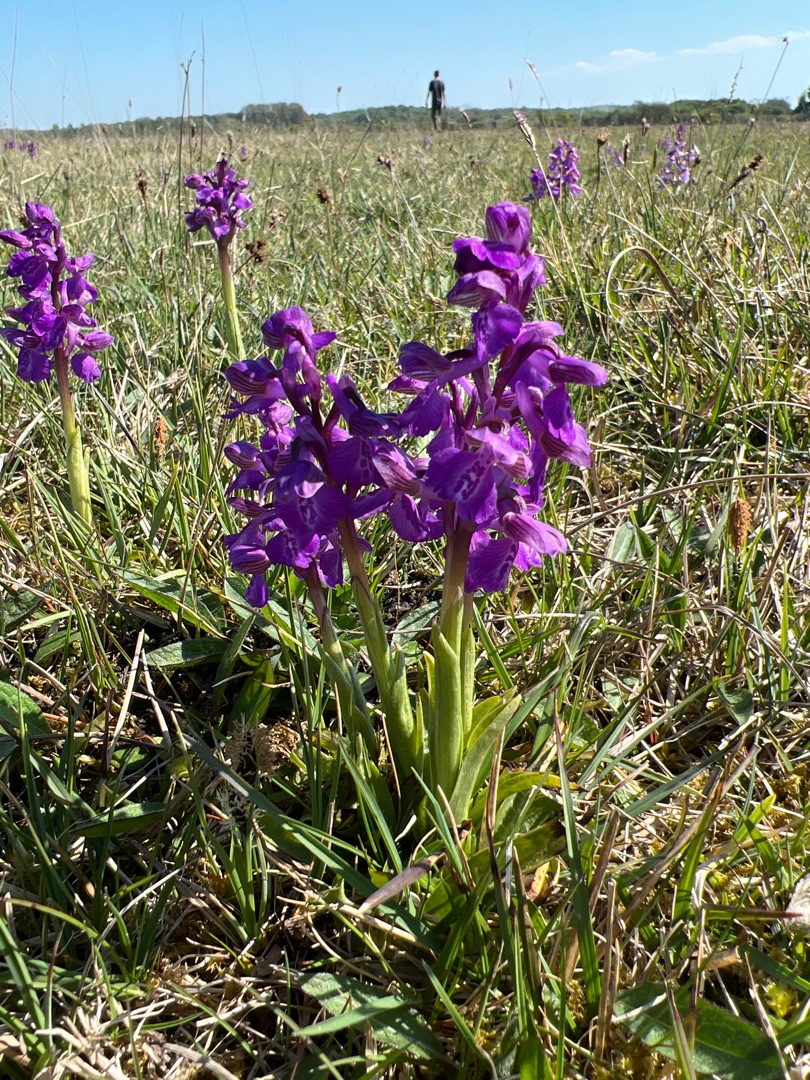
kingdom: Plantae
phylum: Tracheophyta
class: Liliopsida
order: Asparagales
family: Orchidaceae
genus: Anacamptis
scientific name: Anacamptis morio
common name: Salepgøgeurt
